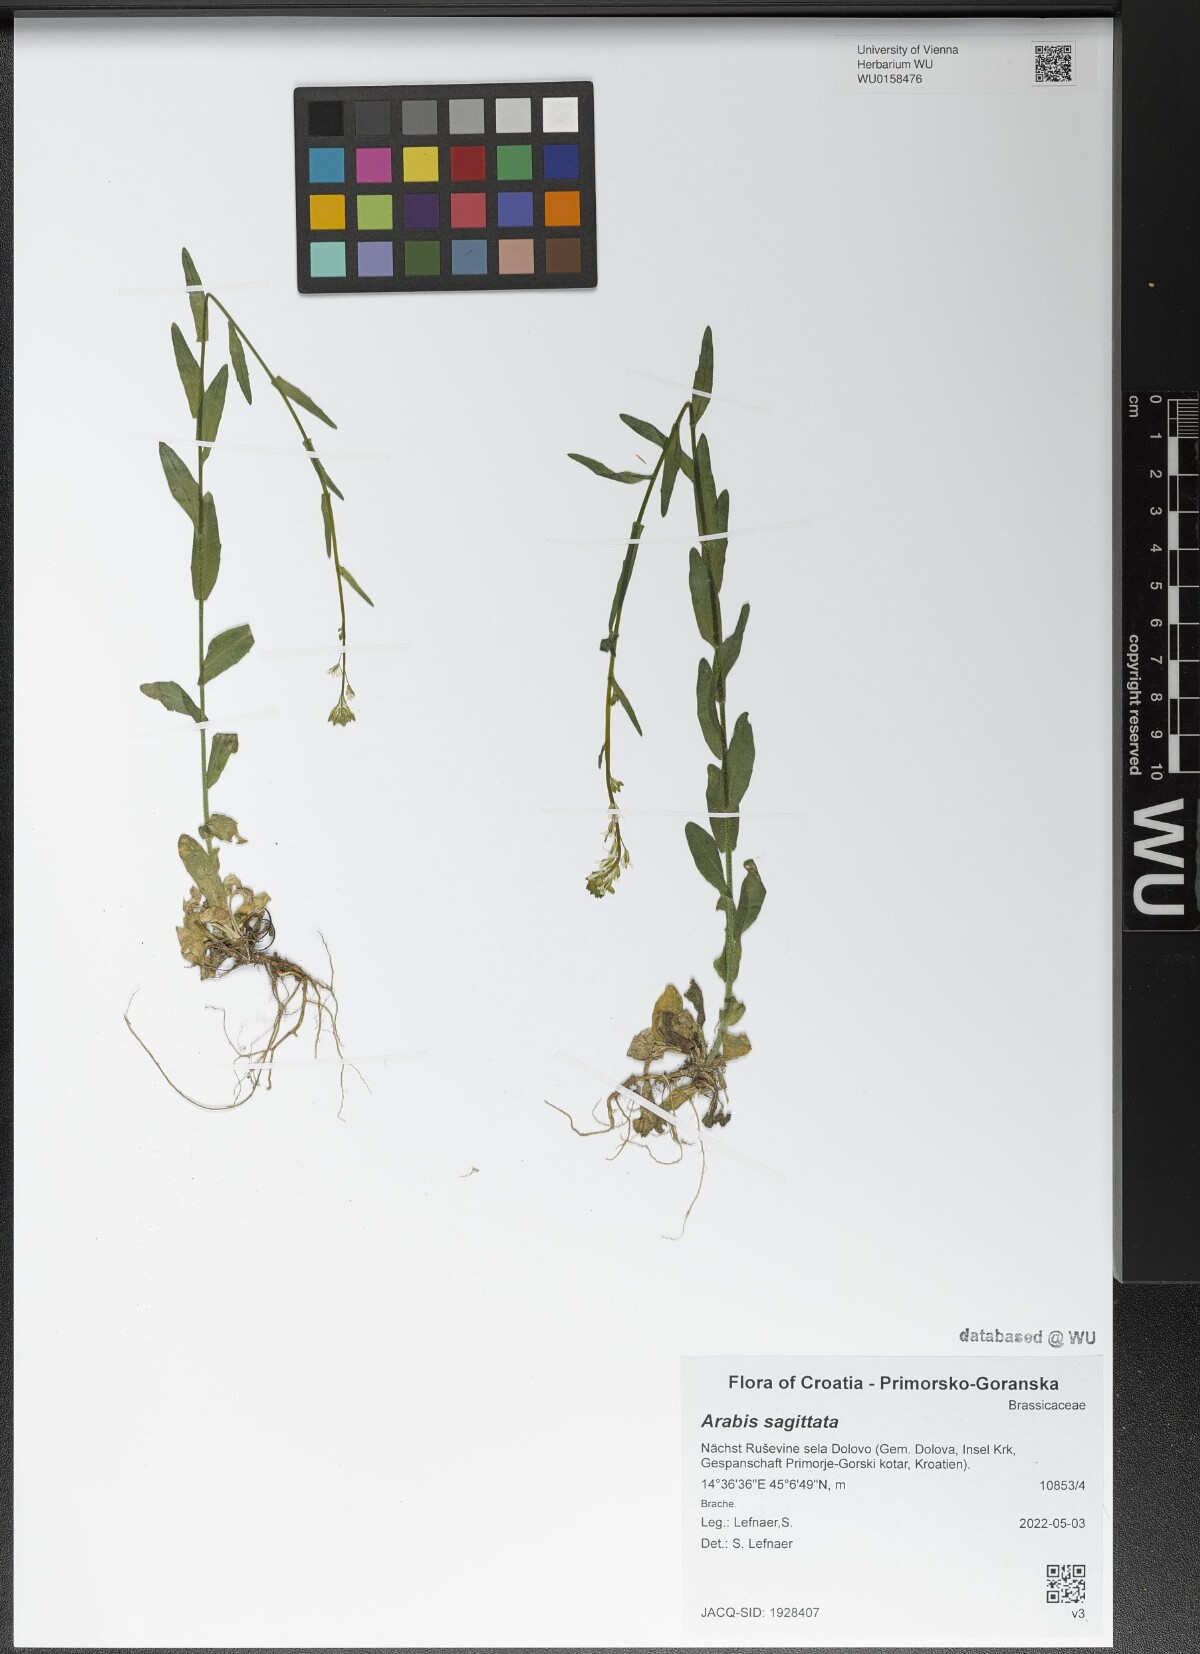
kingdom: Plantae
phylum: Tracheophyta
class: Magnoliopsida
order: Brassicales
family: Brassicaceae
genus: Arabis
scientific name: Arabis sagittata
